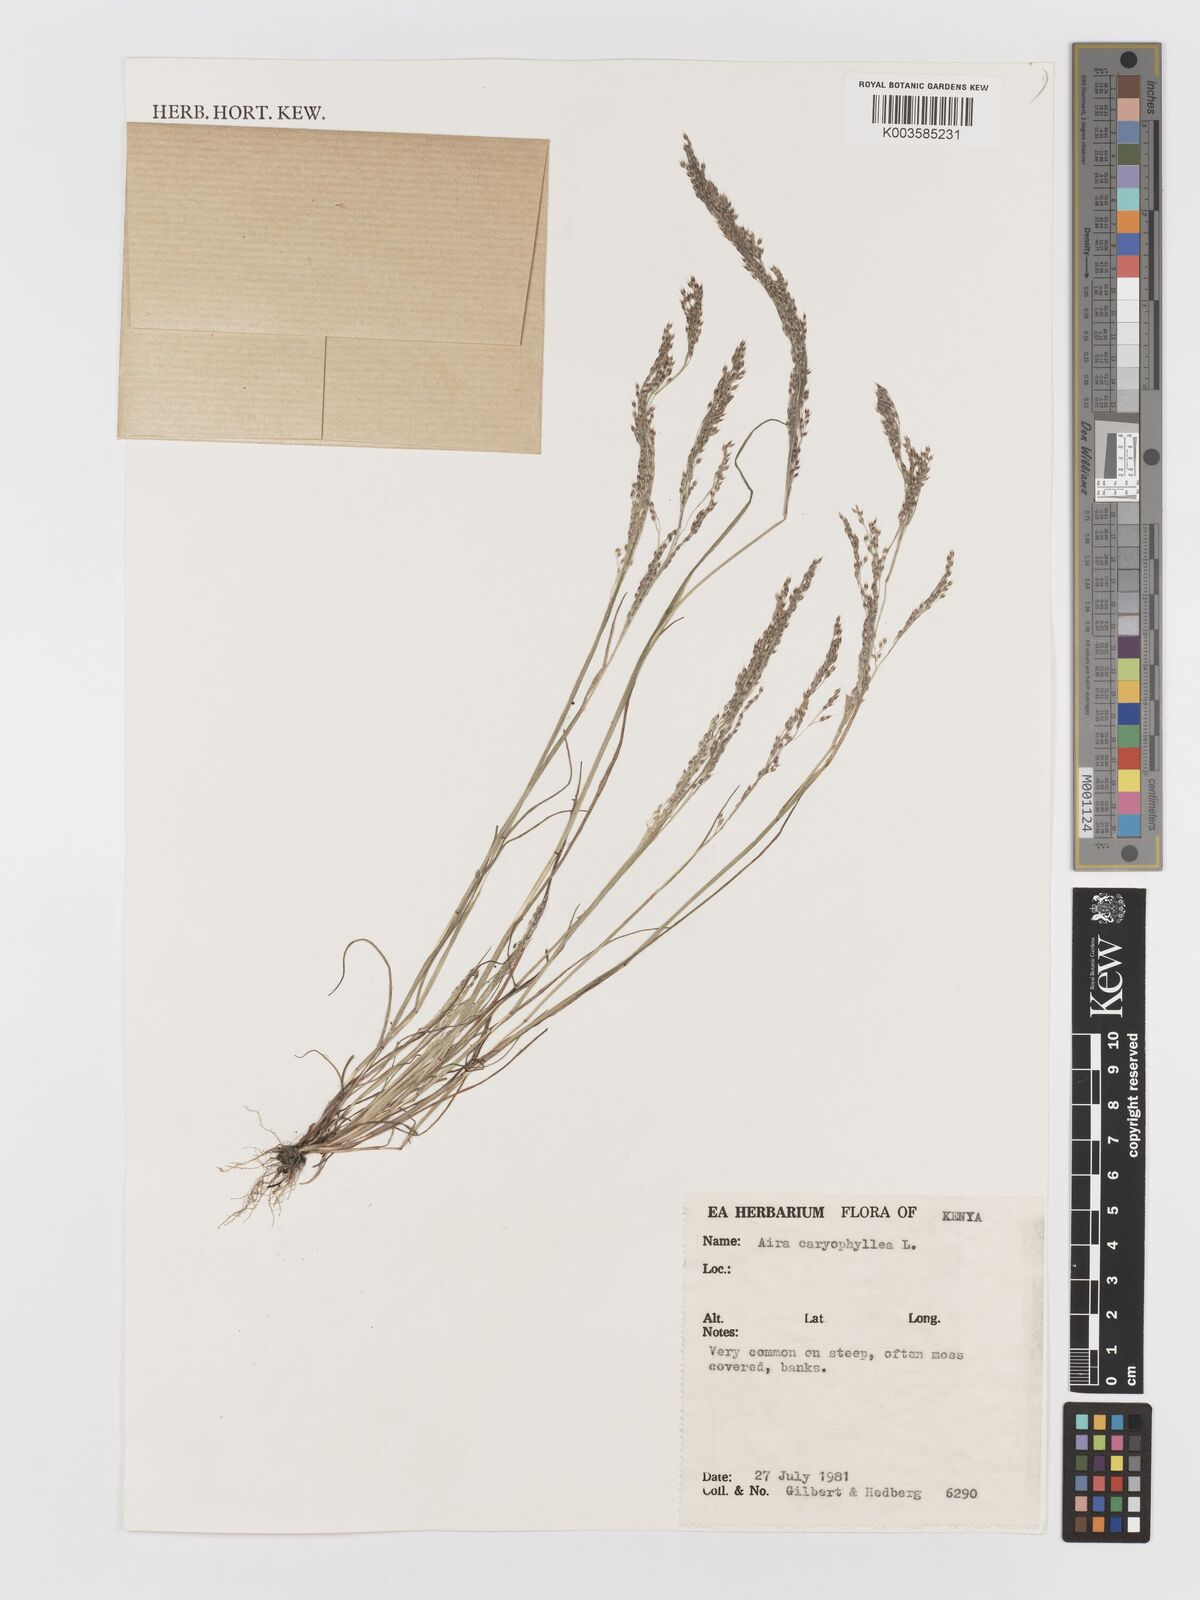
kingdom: Plantae
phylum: Tracheophyta
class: Liliopsida
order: Poales
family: Poaceae
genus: Aira
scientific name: Aira caryophyllea
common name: Silver hairgrass
